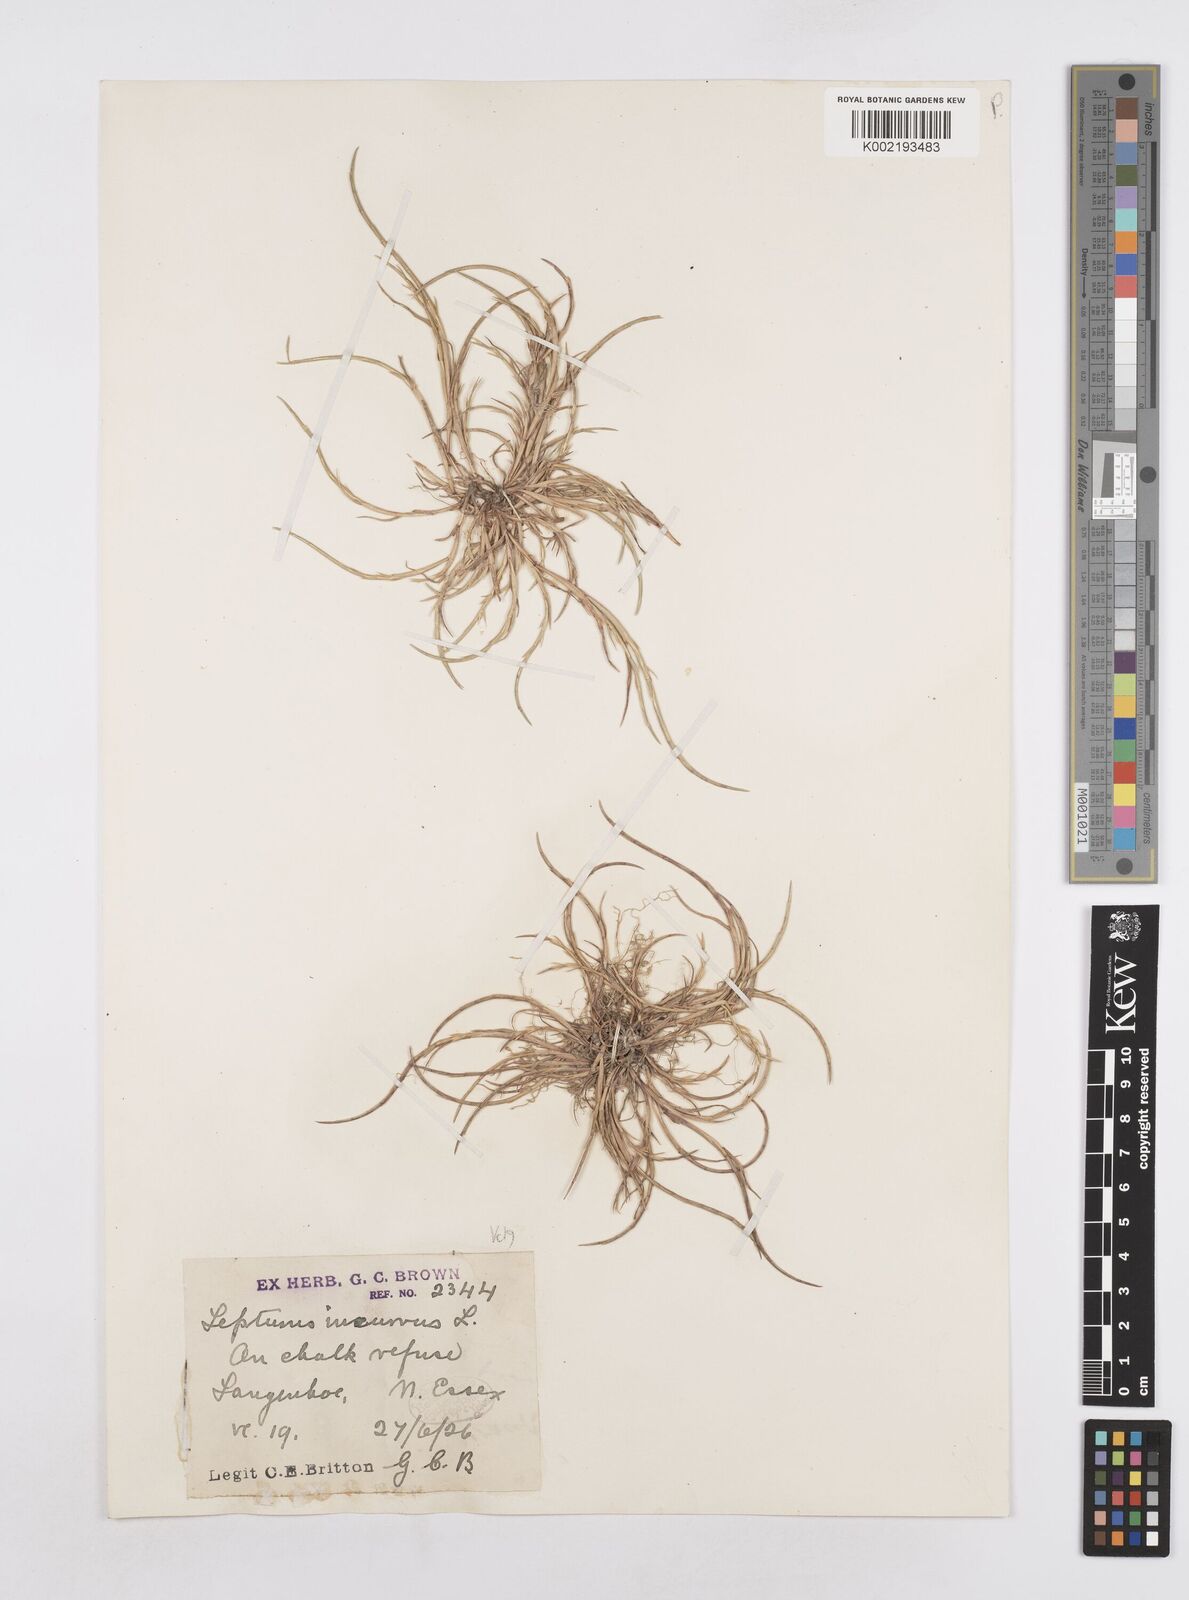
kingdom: Plantae
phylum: Tracheophyta
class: Liliopsida
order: Poales
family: Poaceae
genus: Parapholis
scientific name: Parapholis incurva
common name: Curved sicklegrass
